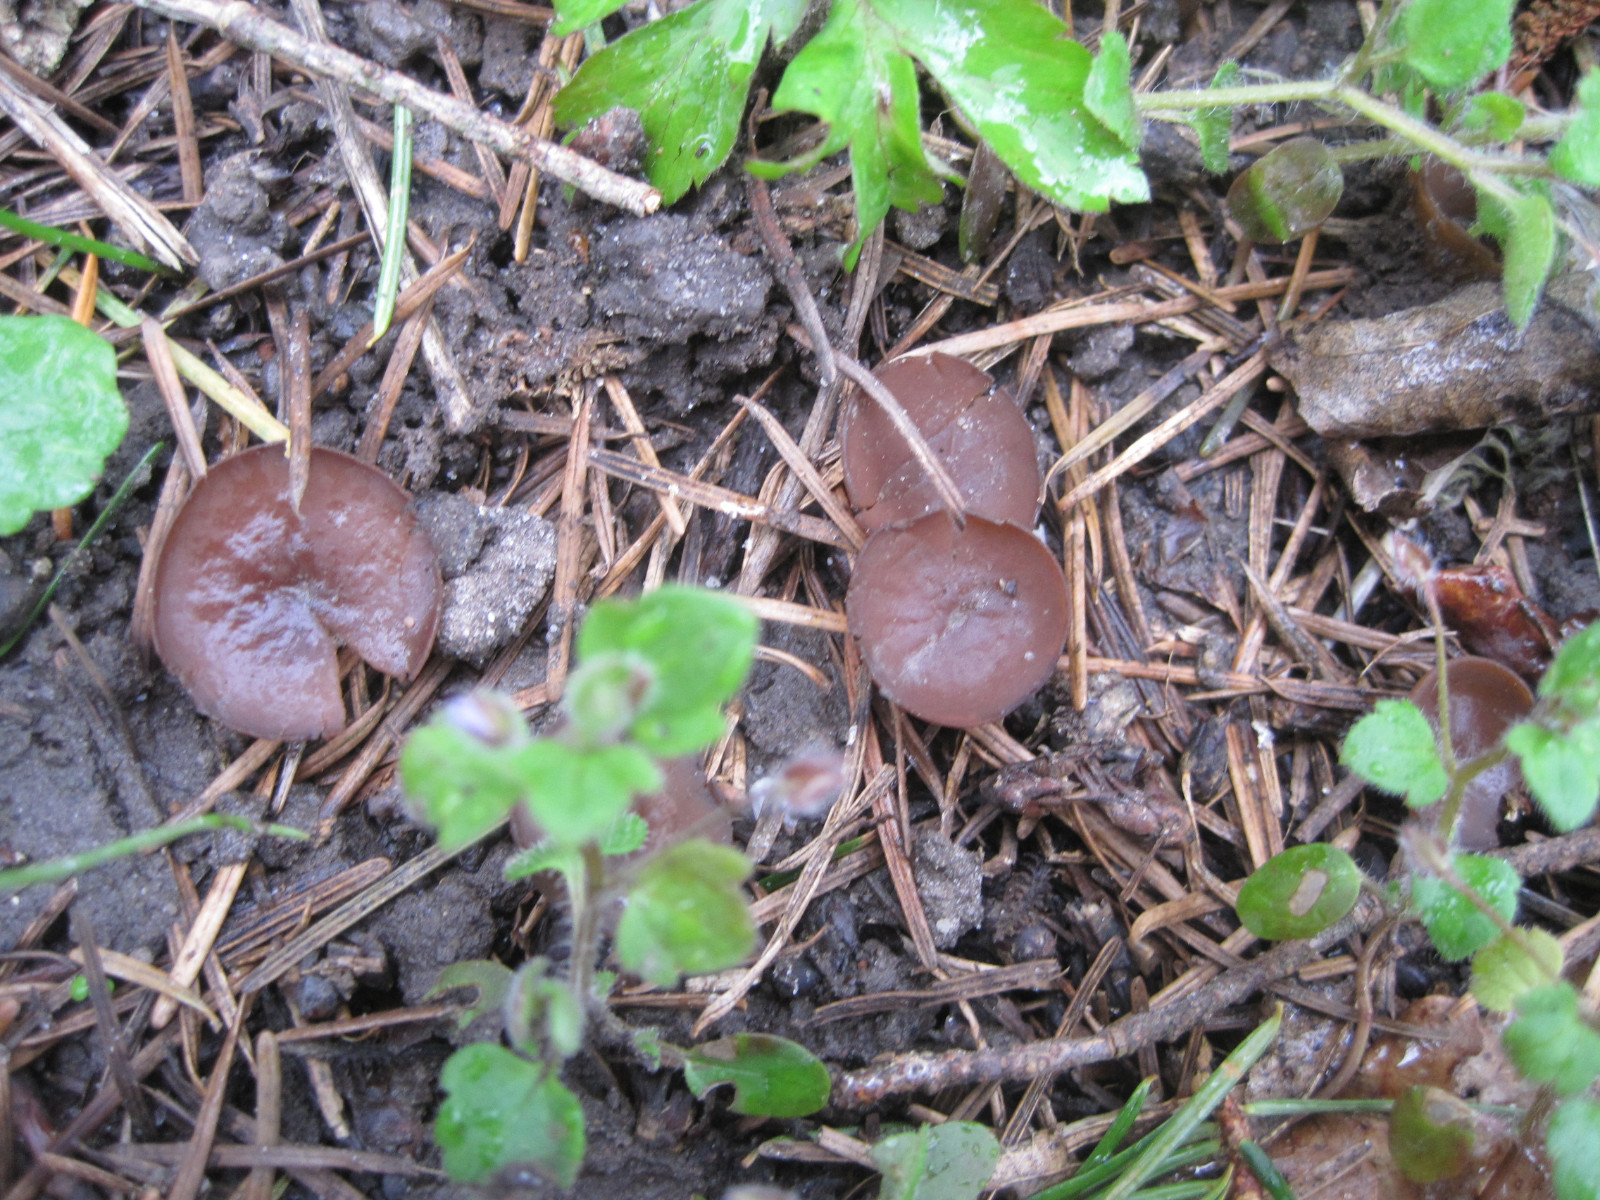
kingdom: Fungi
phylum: Ascomycota
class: Leotiomycetes
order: Helotiales
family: Sclerotiniaceae
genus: Dumontinia
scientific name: Dumontinia tuberosa
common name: anemone-knoldskive
